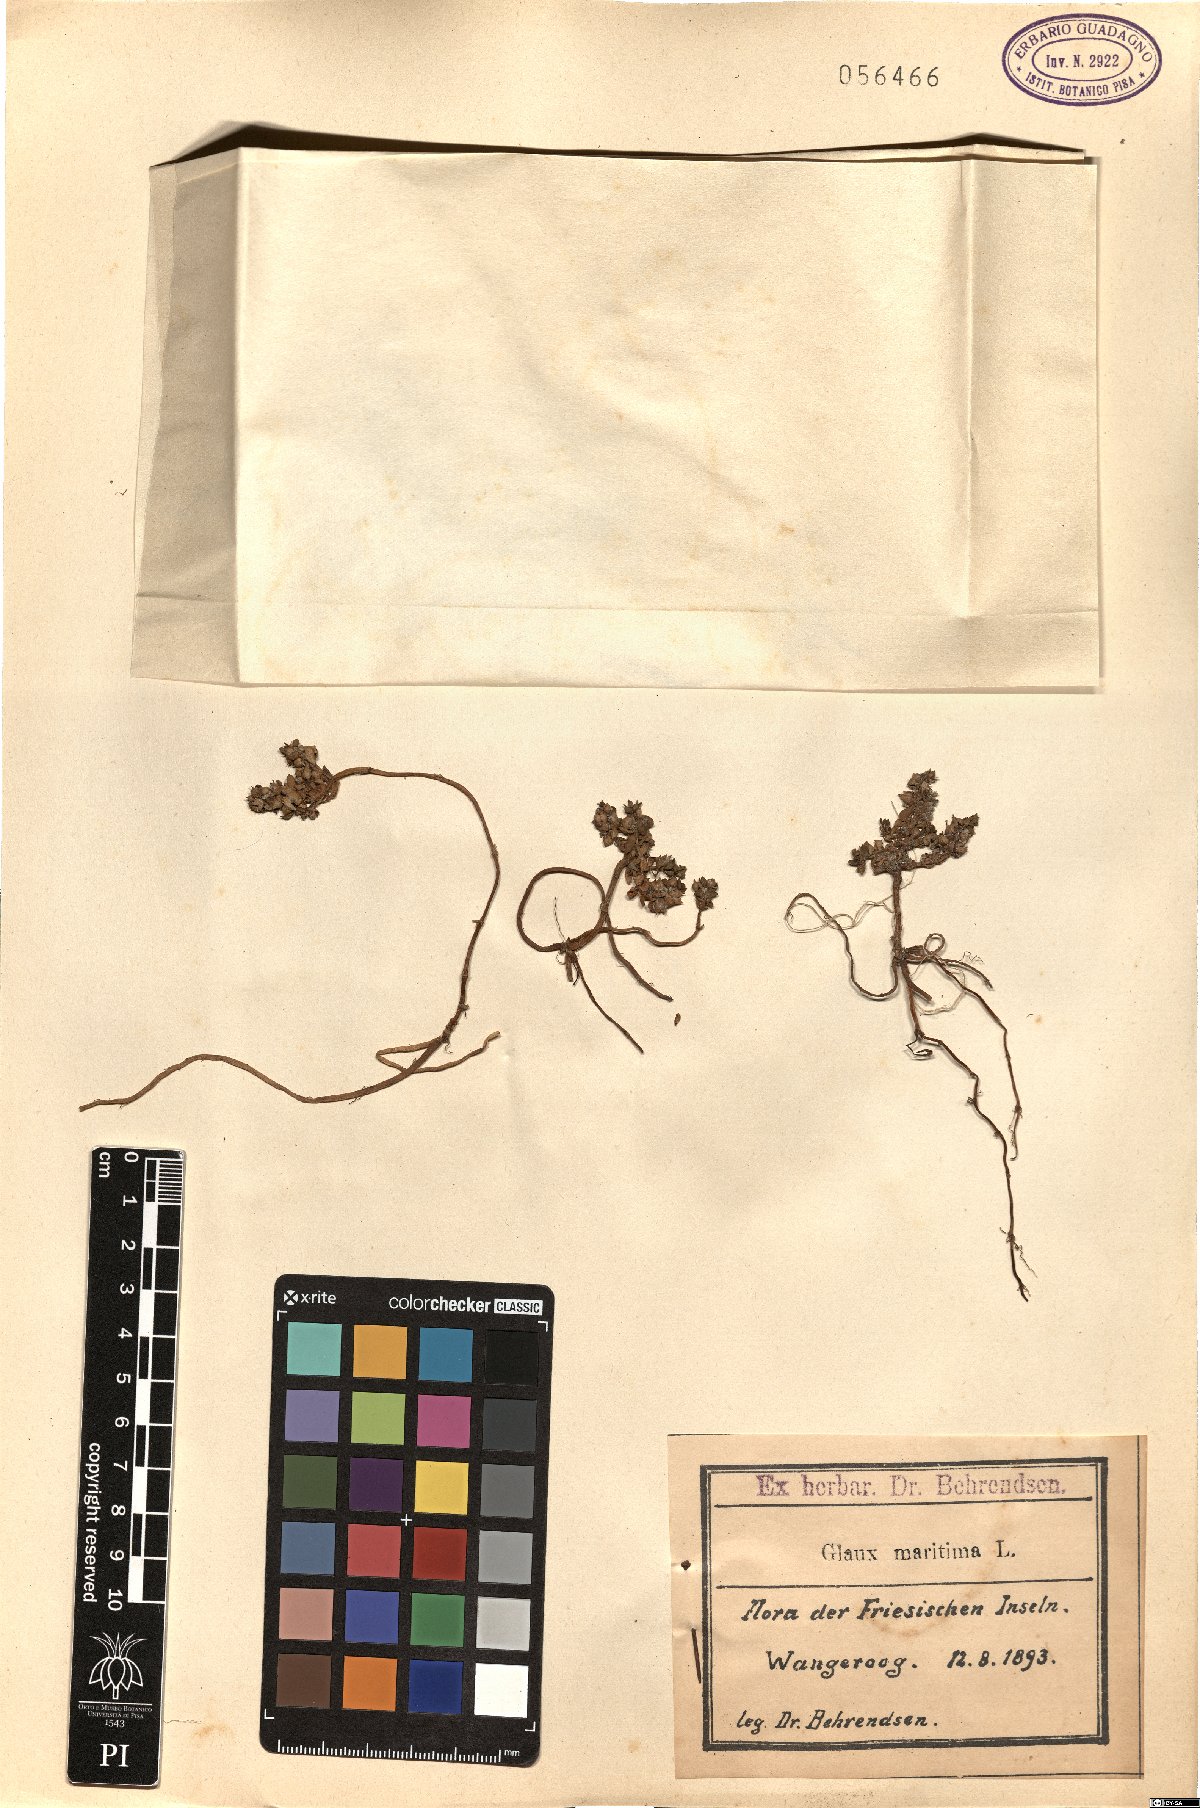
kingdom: Plantae
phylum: Tracheophyta
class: Magnoliopsida
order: Ericales
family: Primulaceae
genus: Lysimachia
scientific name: Lysimachia maritima
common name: Sea milkwort
